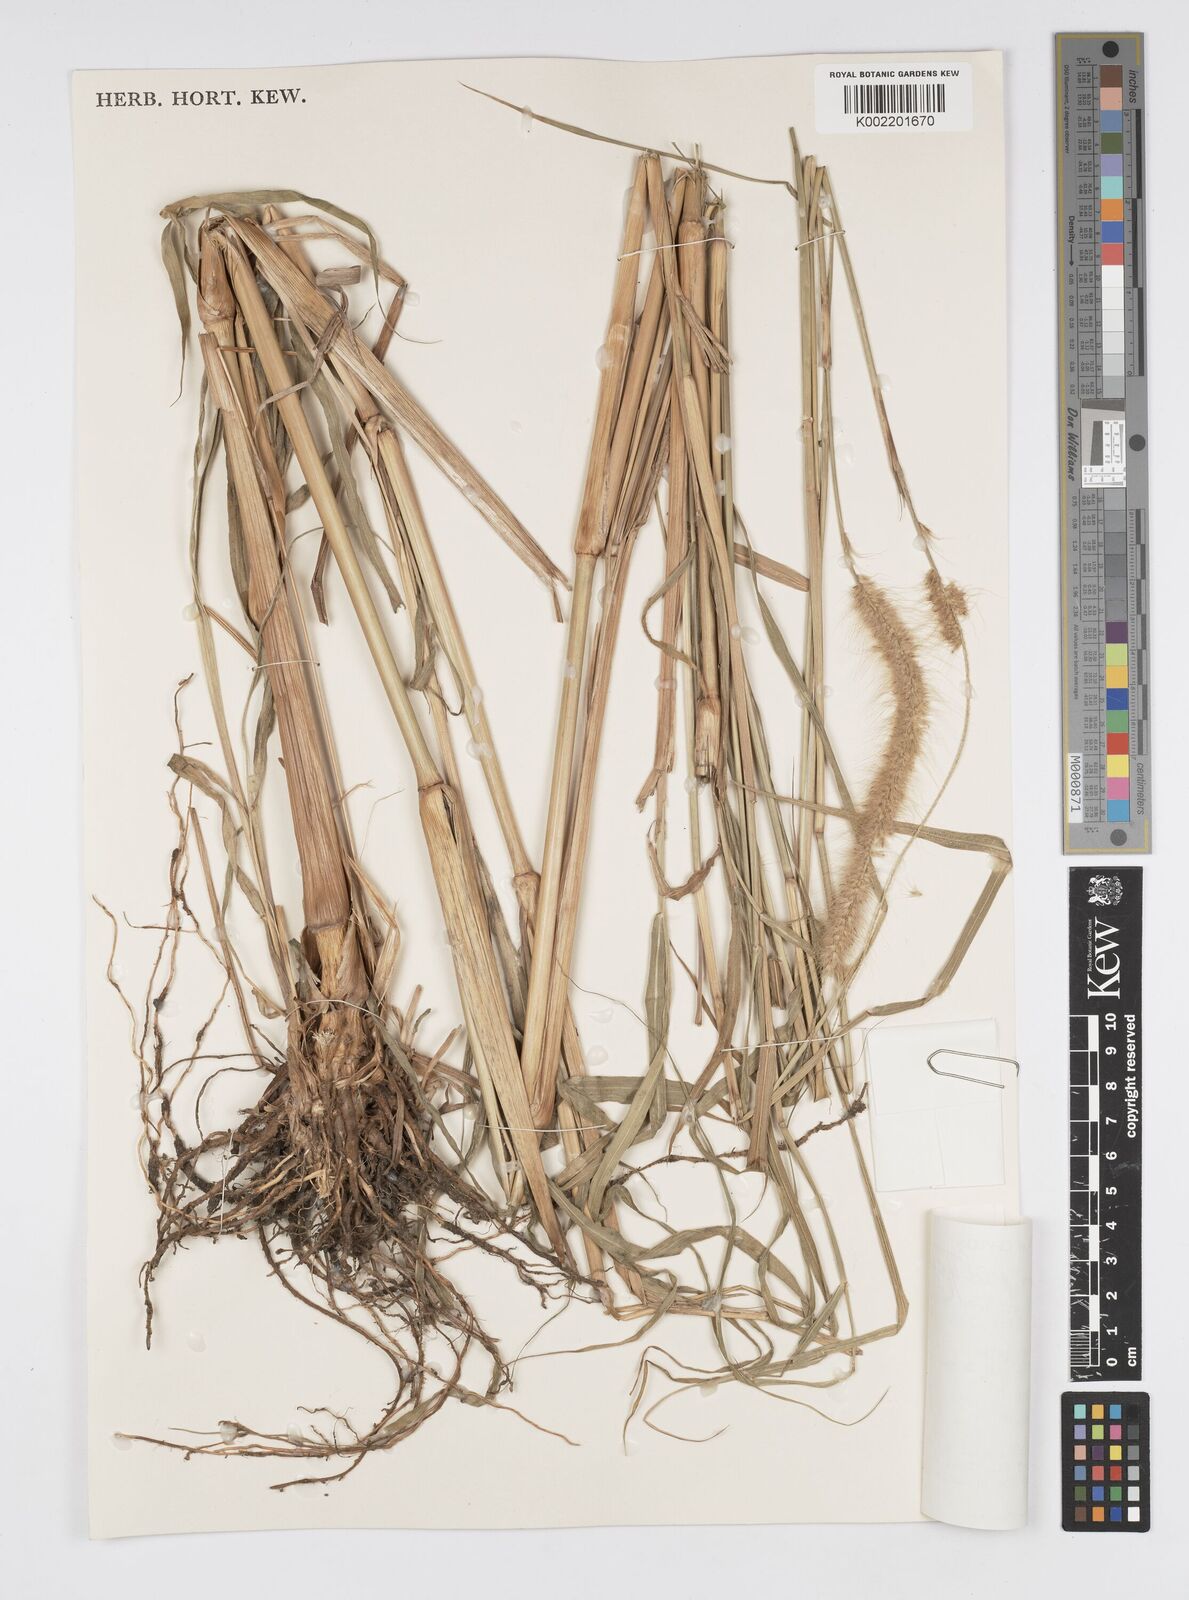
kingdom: Plantae
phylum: Tracheophyta
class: Liliopsida
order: Poales
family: Poaceae
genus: Setaria
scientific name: Setaria parviflora
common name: Knotroot bristle-grass
